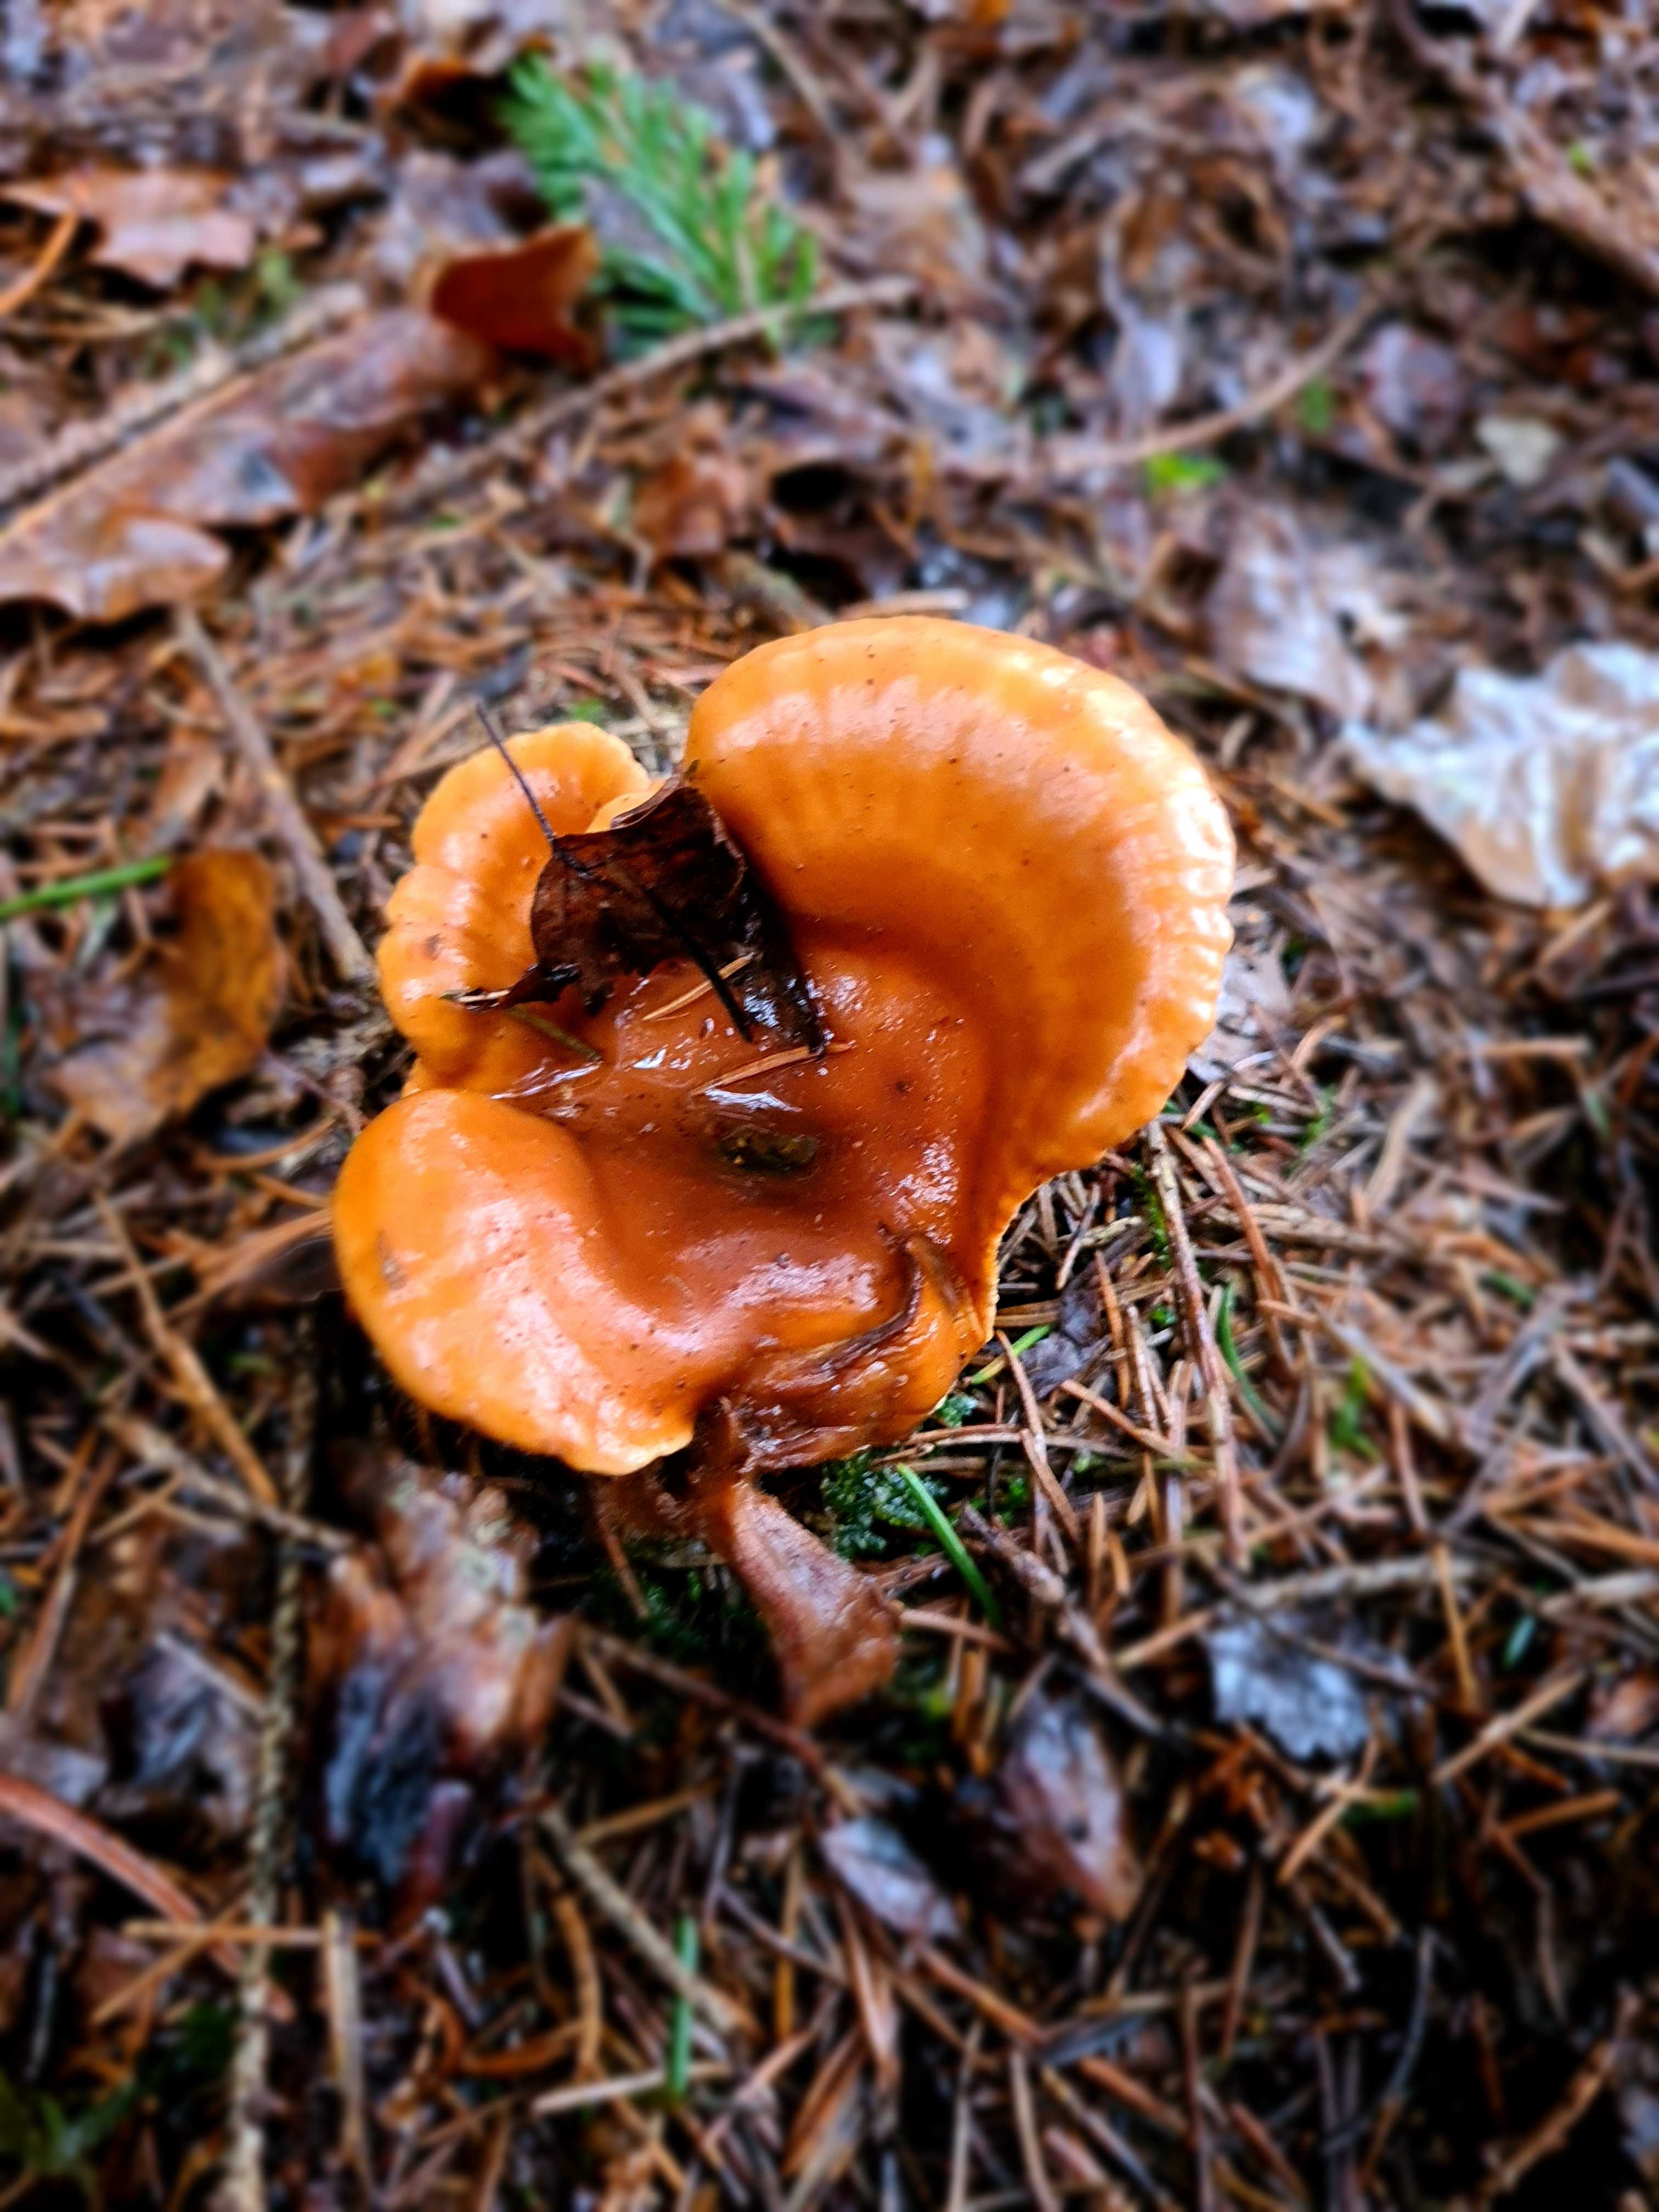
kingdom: Fungi
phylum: Basidiomycota
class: Agaricomycetes
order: Agaricales
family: Tricholomataceae
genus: Paralepista
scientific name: Paralepista flaccida
